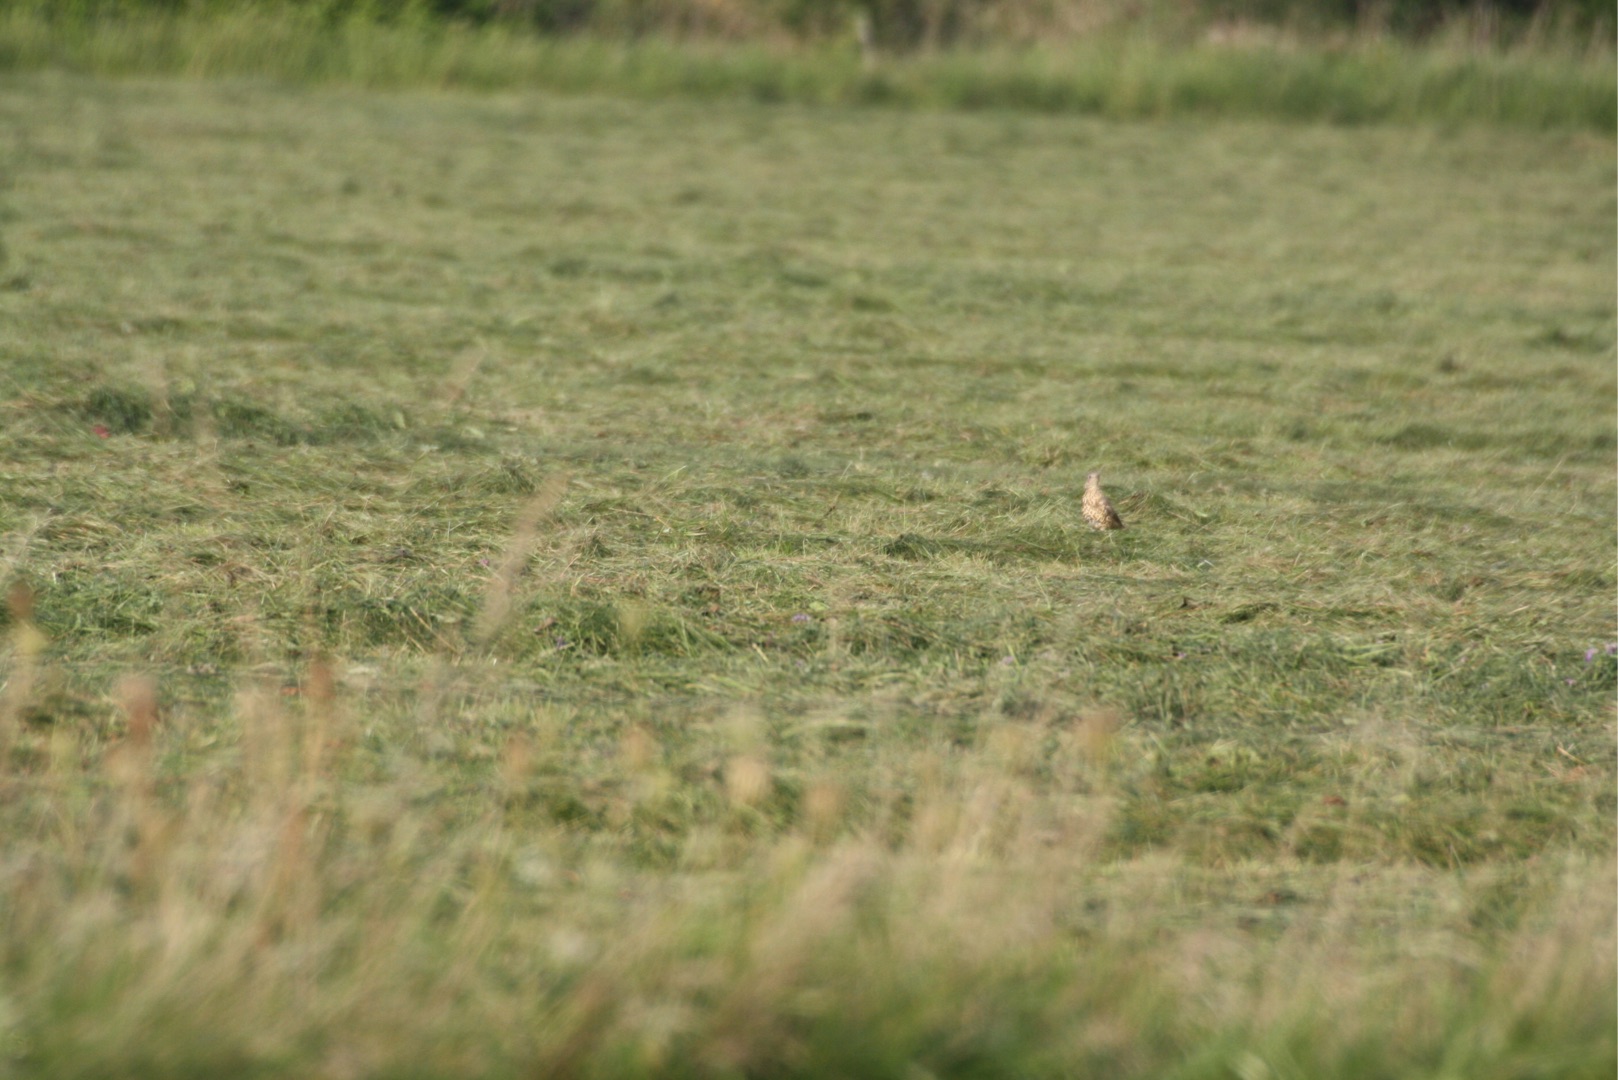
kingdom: Animalia
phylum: Chordata
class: Aves
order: Passeriformes
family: Turdidae
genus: Turdus
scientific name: Turdus viscivorus
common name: Misteldrossel
